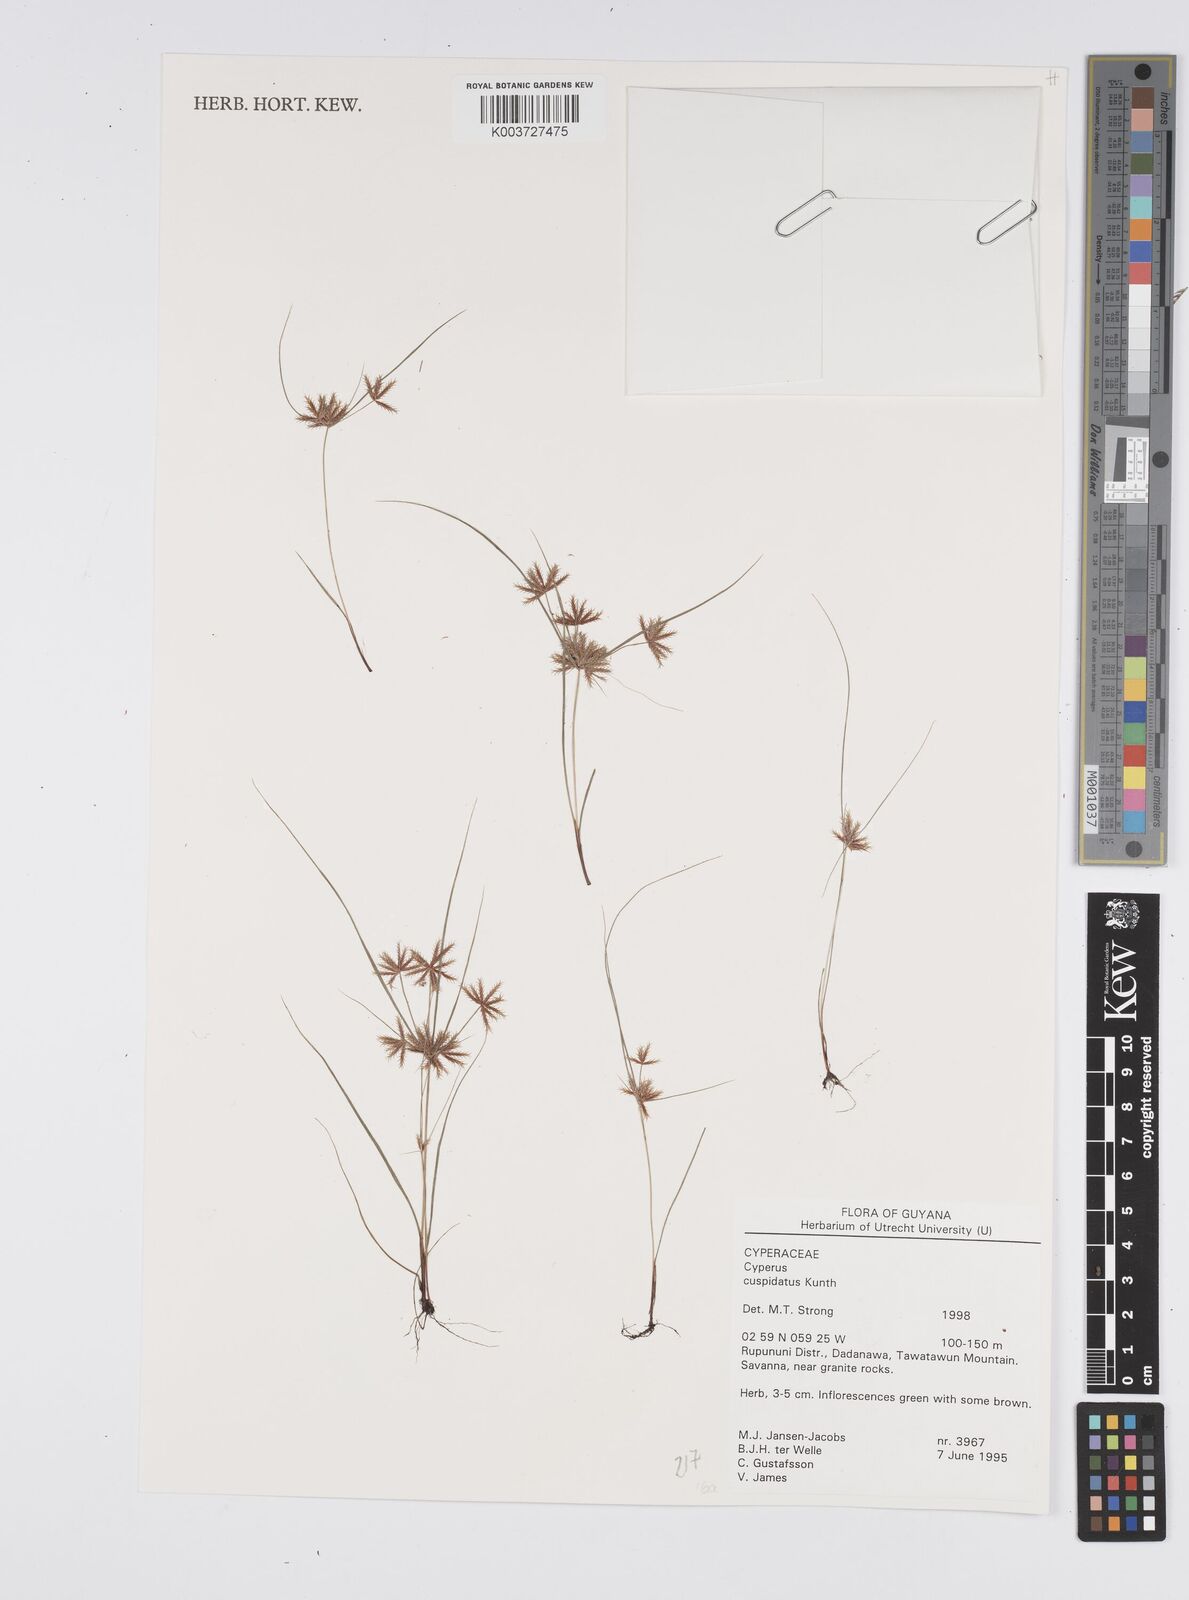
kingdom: Plantae
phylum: Tracheophyta
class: Liliopsida
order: Poales
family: Cyperaceae
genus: Cyperus
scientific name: Cyperus cuspidatus
